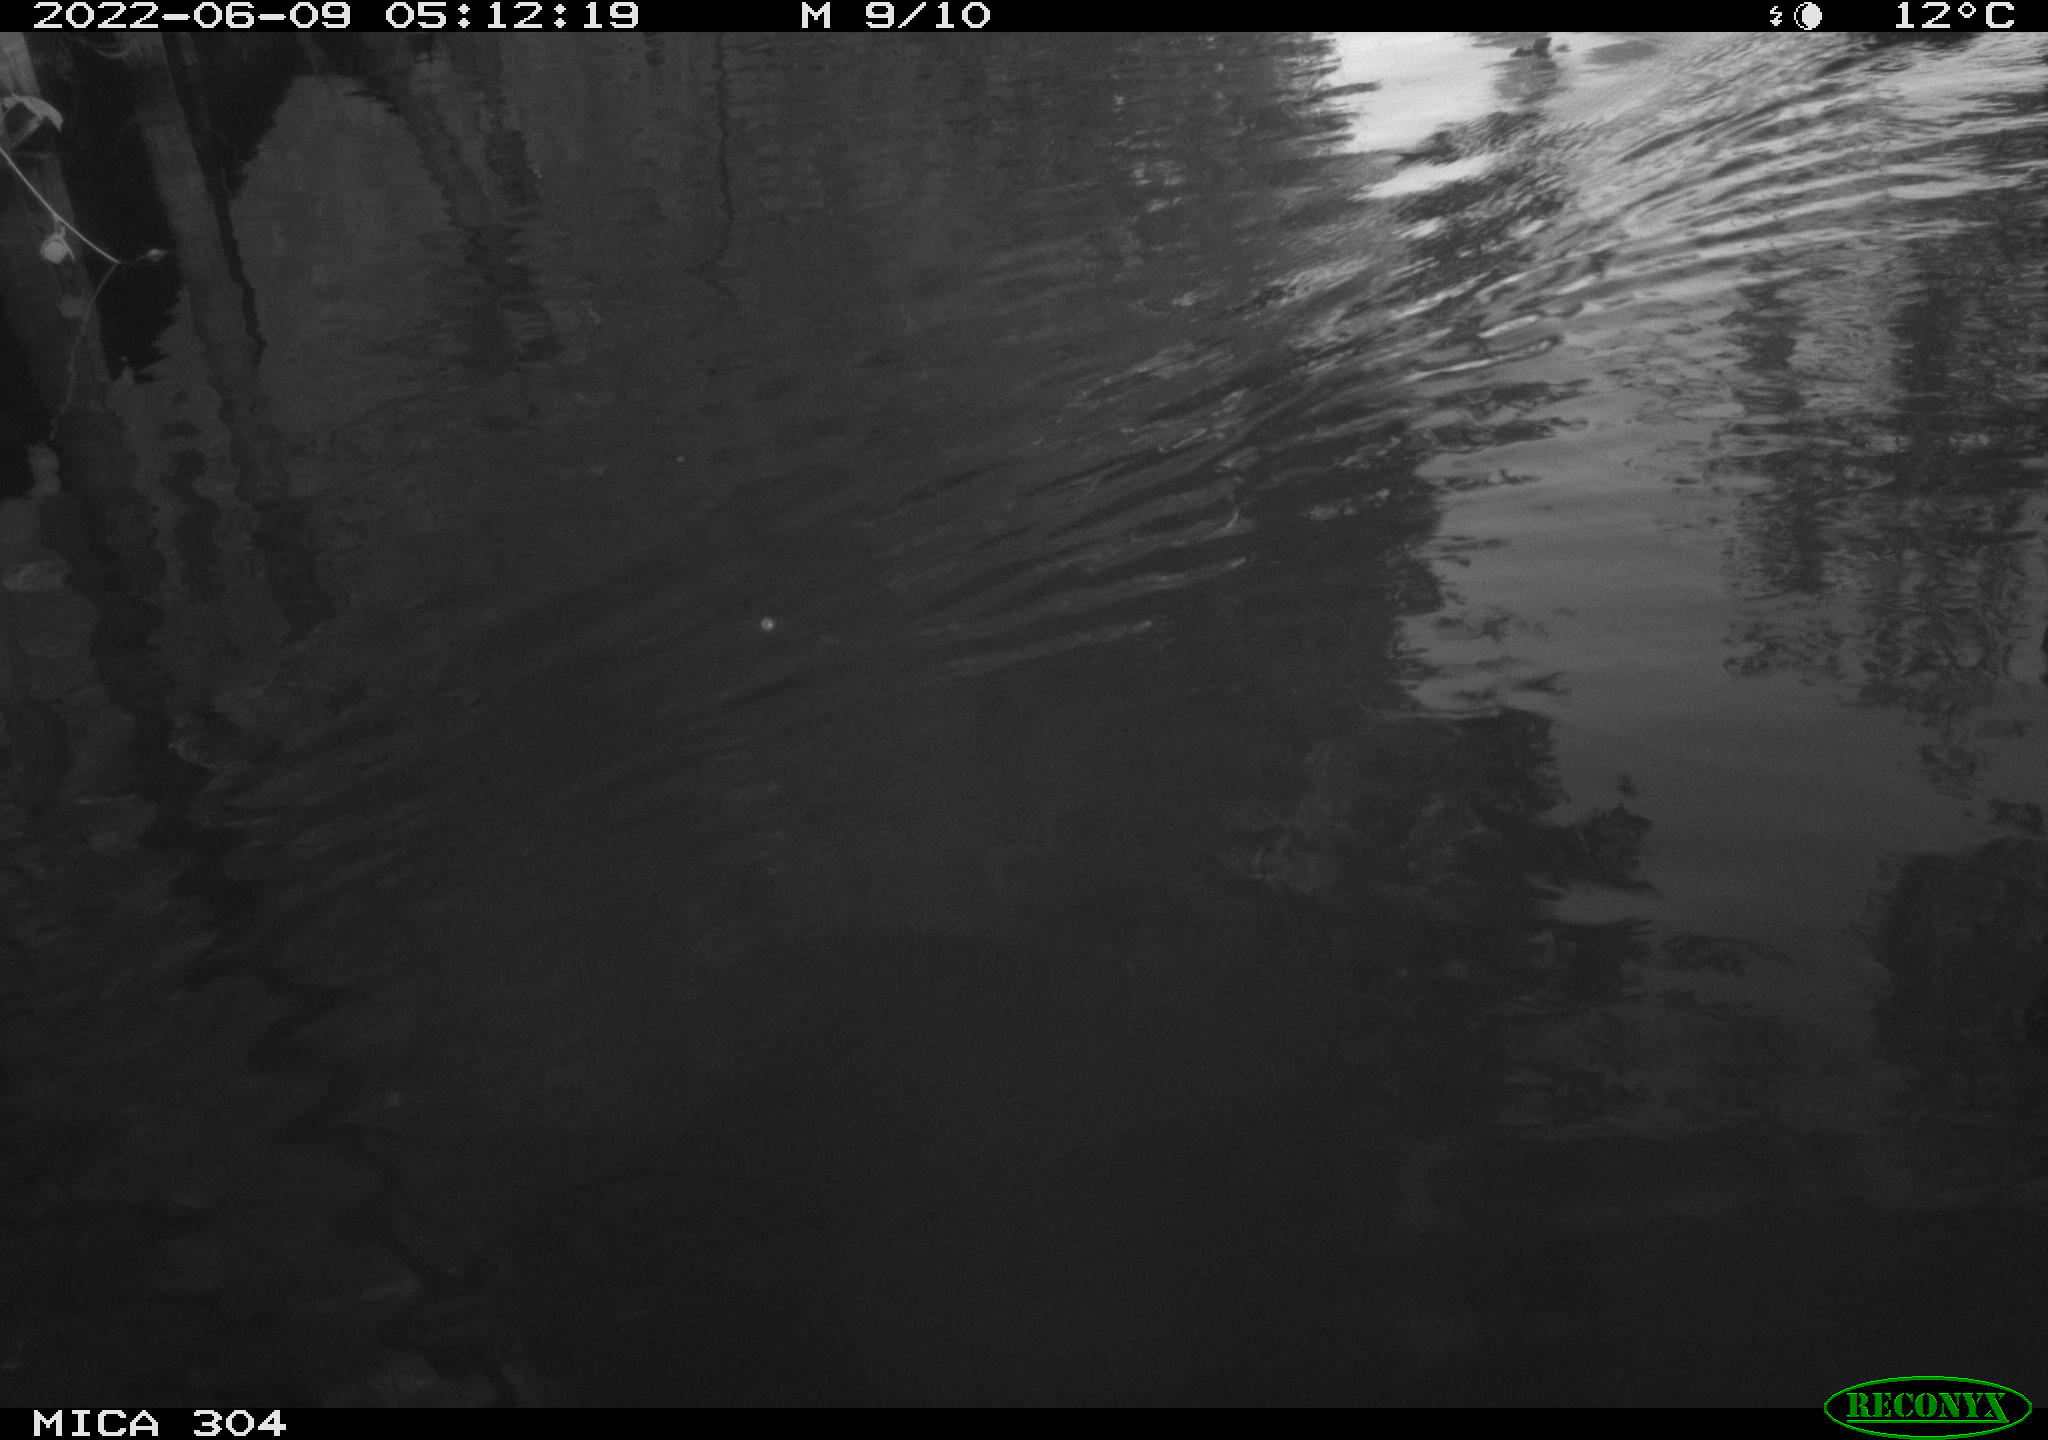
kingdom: Animalia
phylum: Chordata
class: Aves
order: Gruiformes
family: Rallidae
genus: Fulica
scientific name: Fulica atra
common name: Eurasian coot
